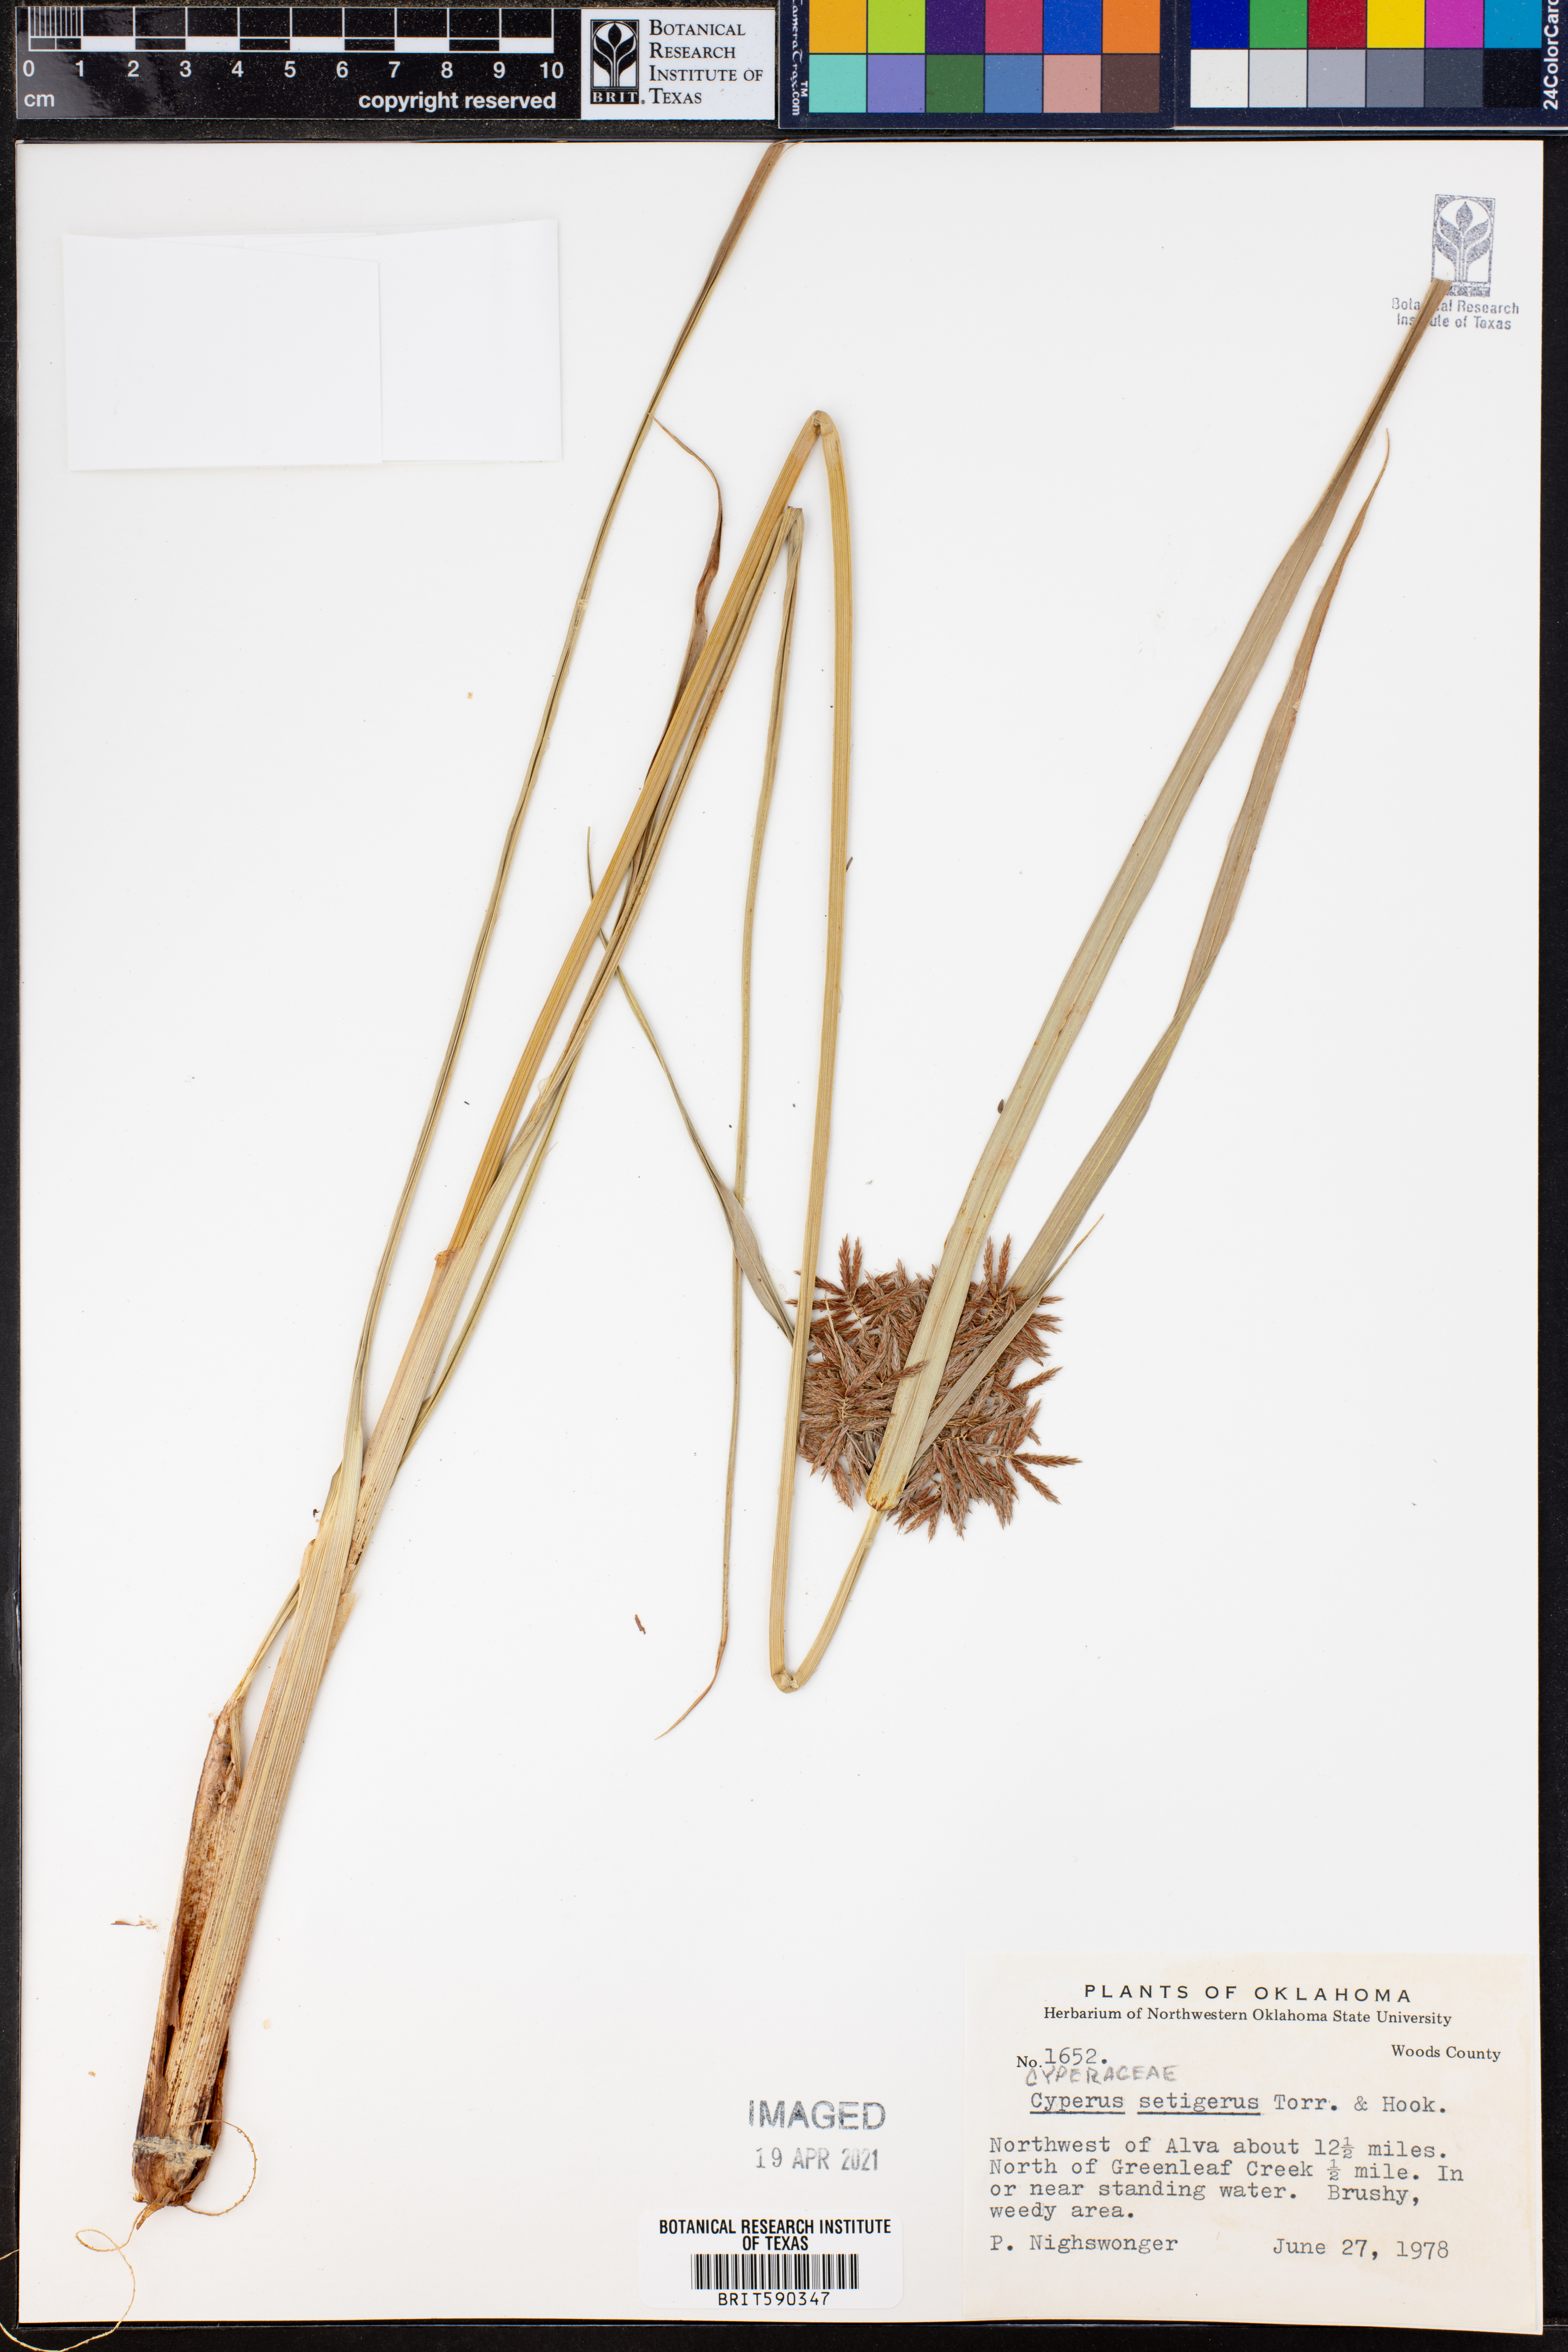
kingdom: Plantae
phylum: Tracheophyta
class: Liliopsida
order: Poales
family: Cyperaceae
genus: Cyperus
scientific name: Cyperus setigerus
